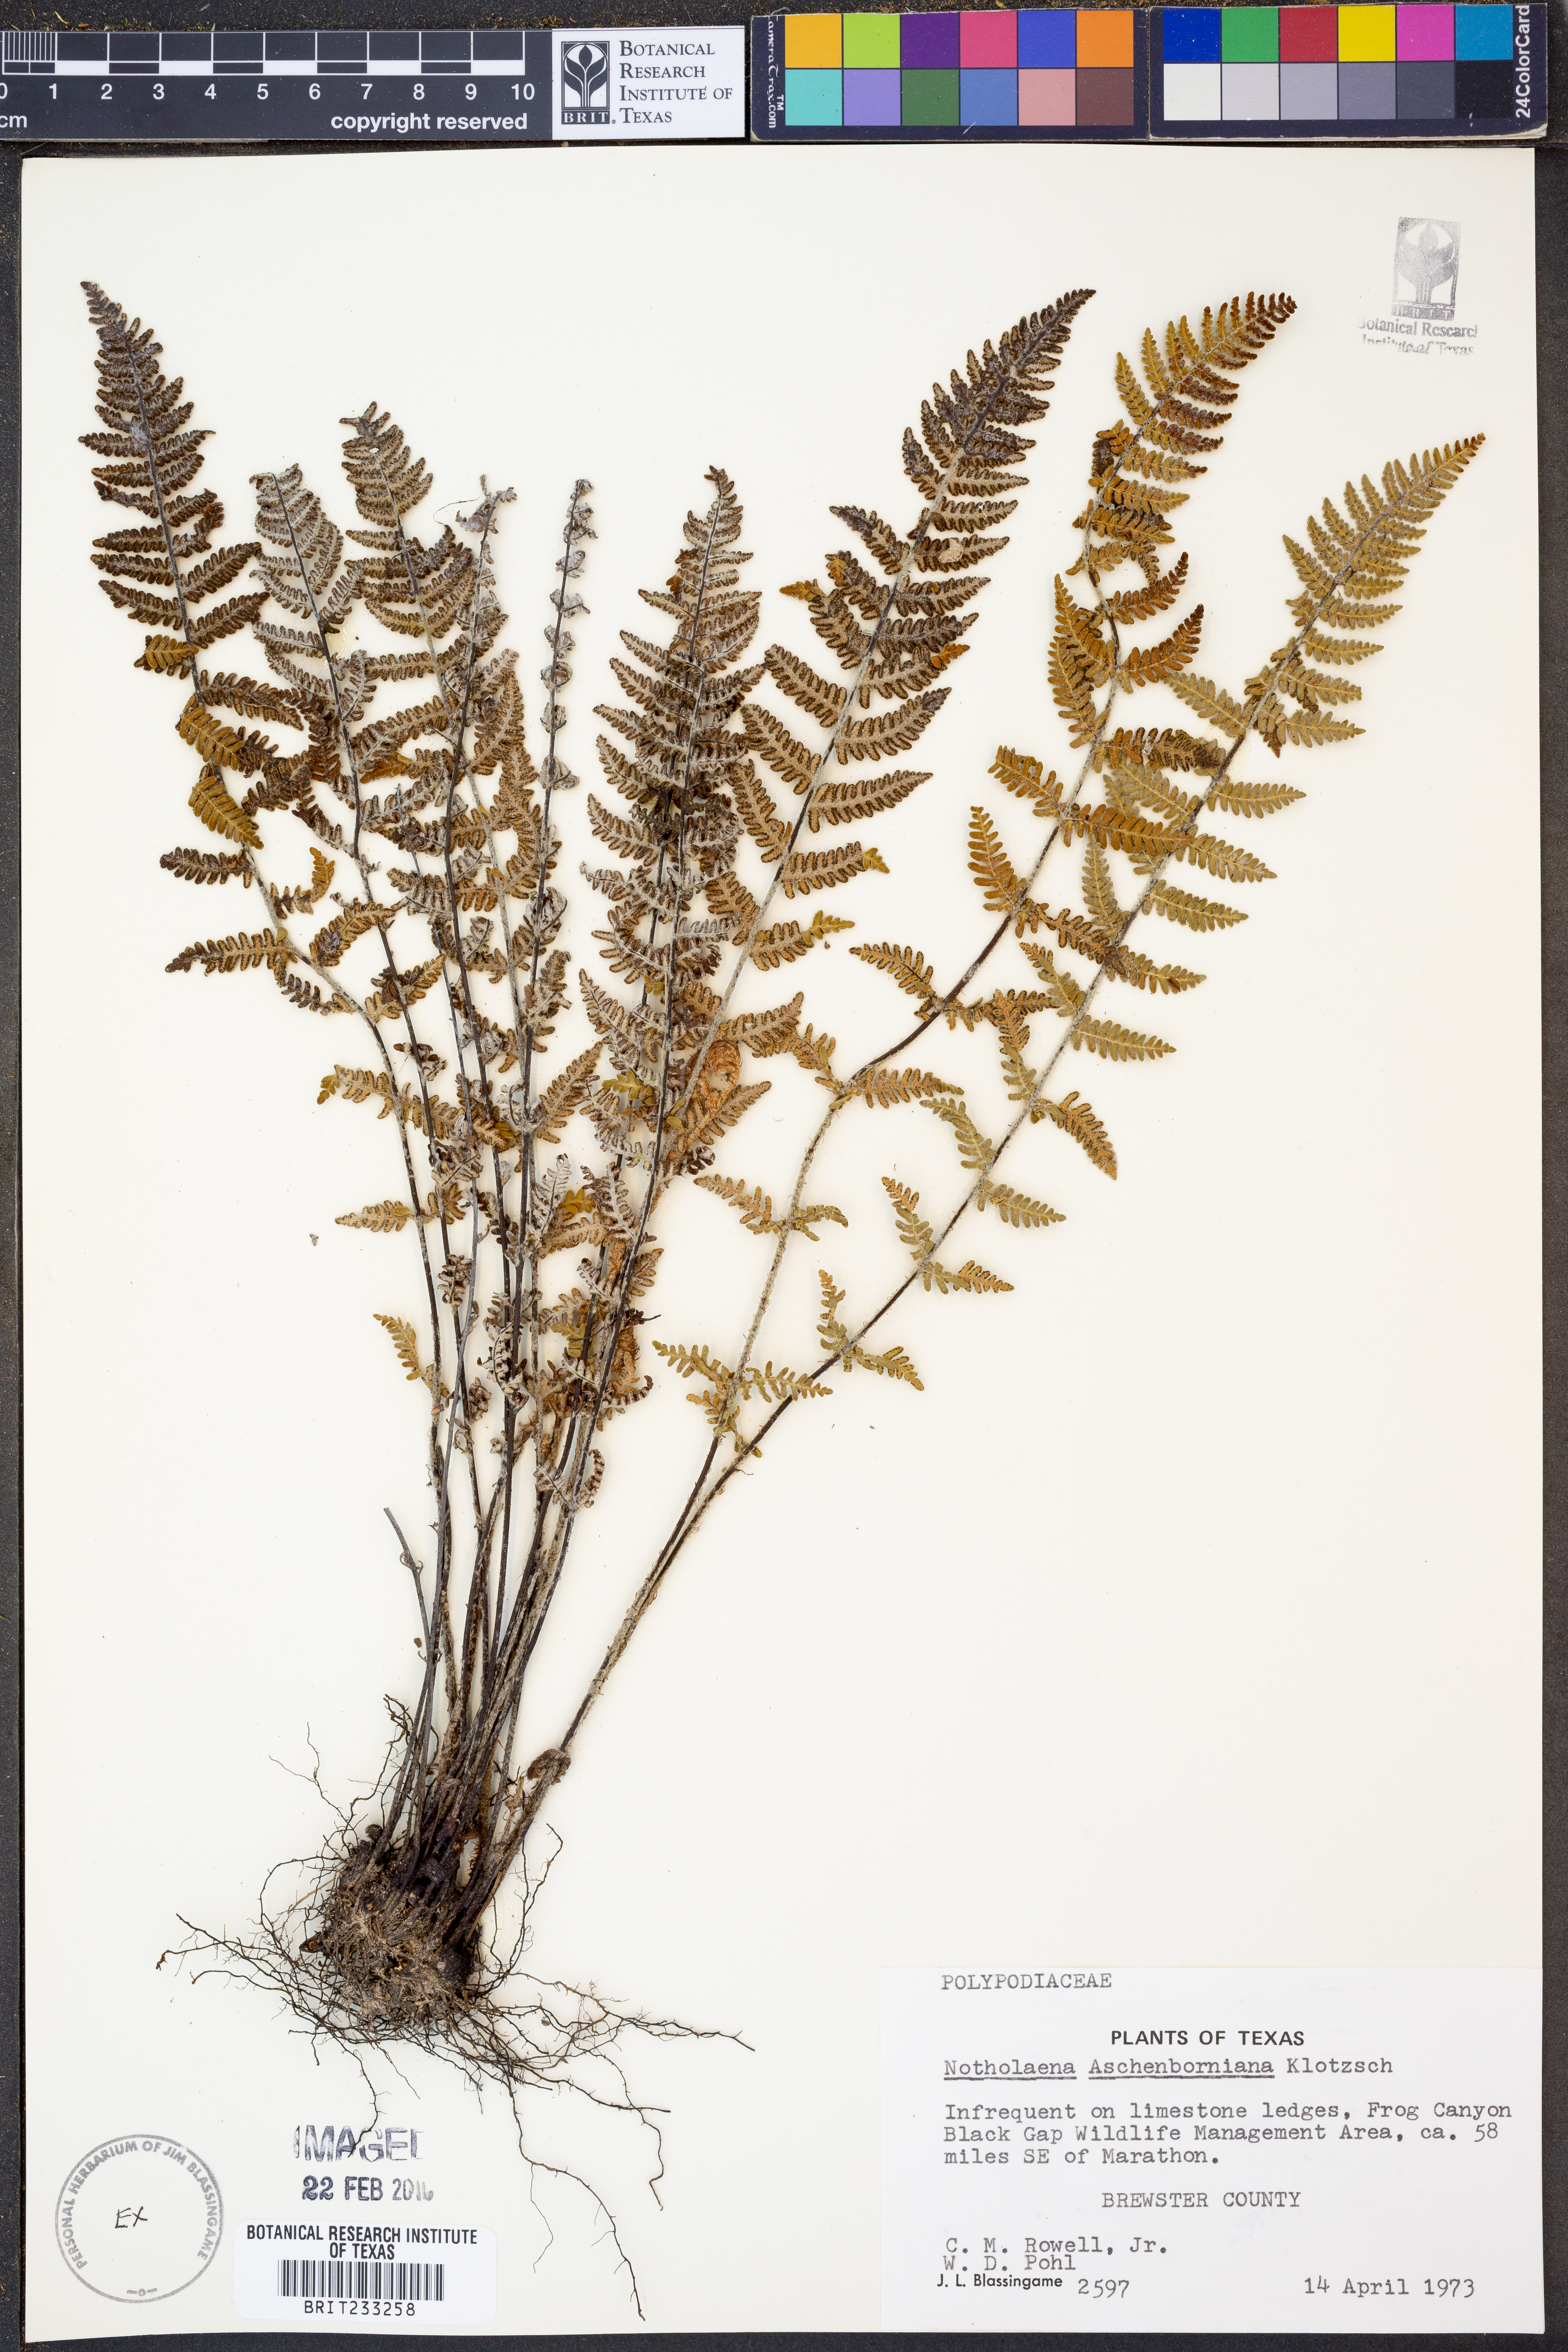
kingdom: Plantae
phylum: Tracheophyta
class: Polypodiopsida
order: Polypodiales
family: Pteridaceae
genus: Notholaena
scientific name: Notholaena aschenborniana
